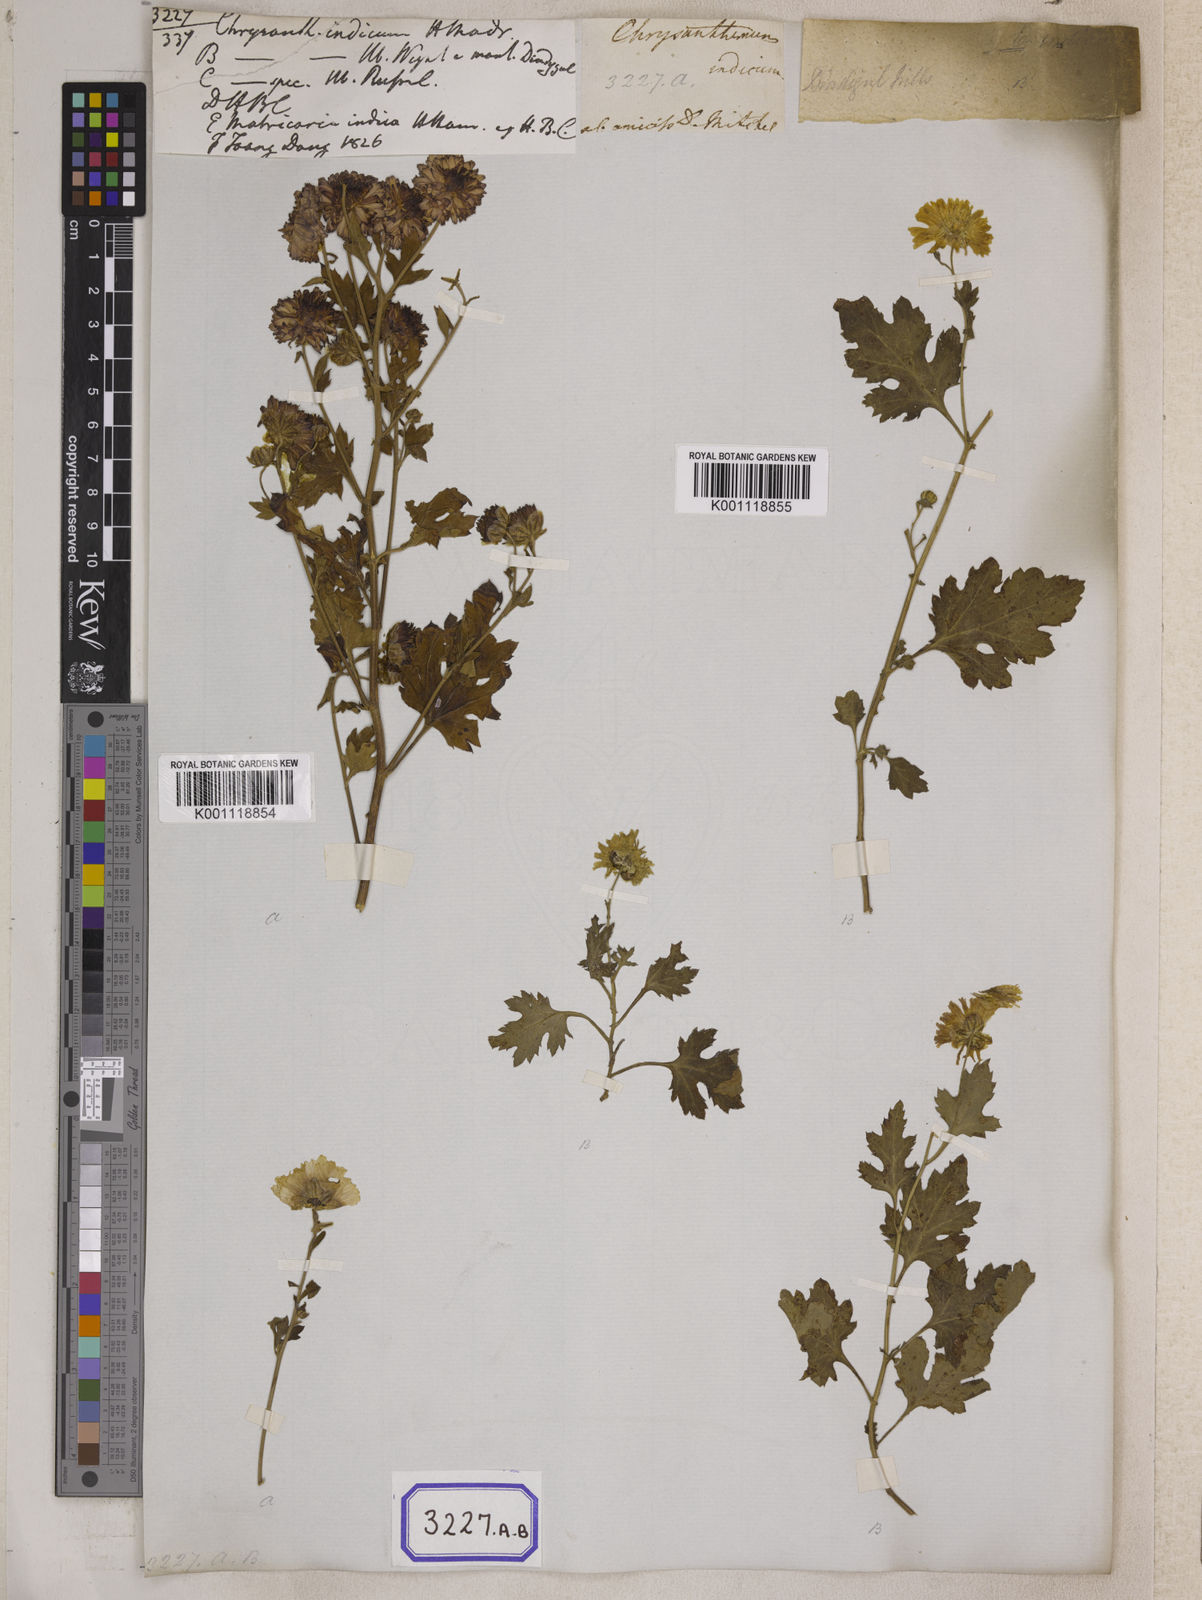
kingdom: Plantae
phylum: Tracheophyta
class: Magnoliopsida
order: Asterales
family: Asteraceae
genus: Chrysanthemum
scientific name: Chrysanthemum indicum
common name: Indian chrysanthemum
